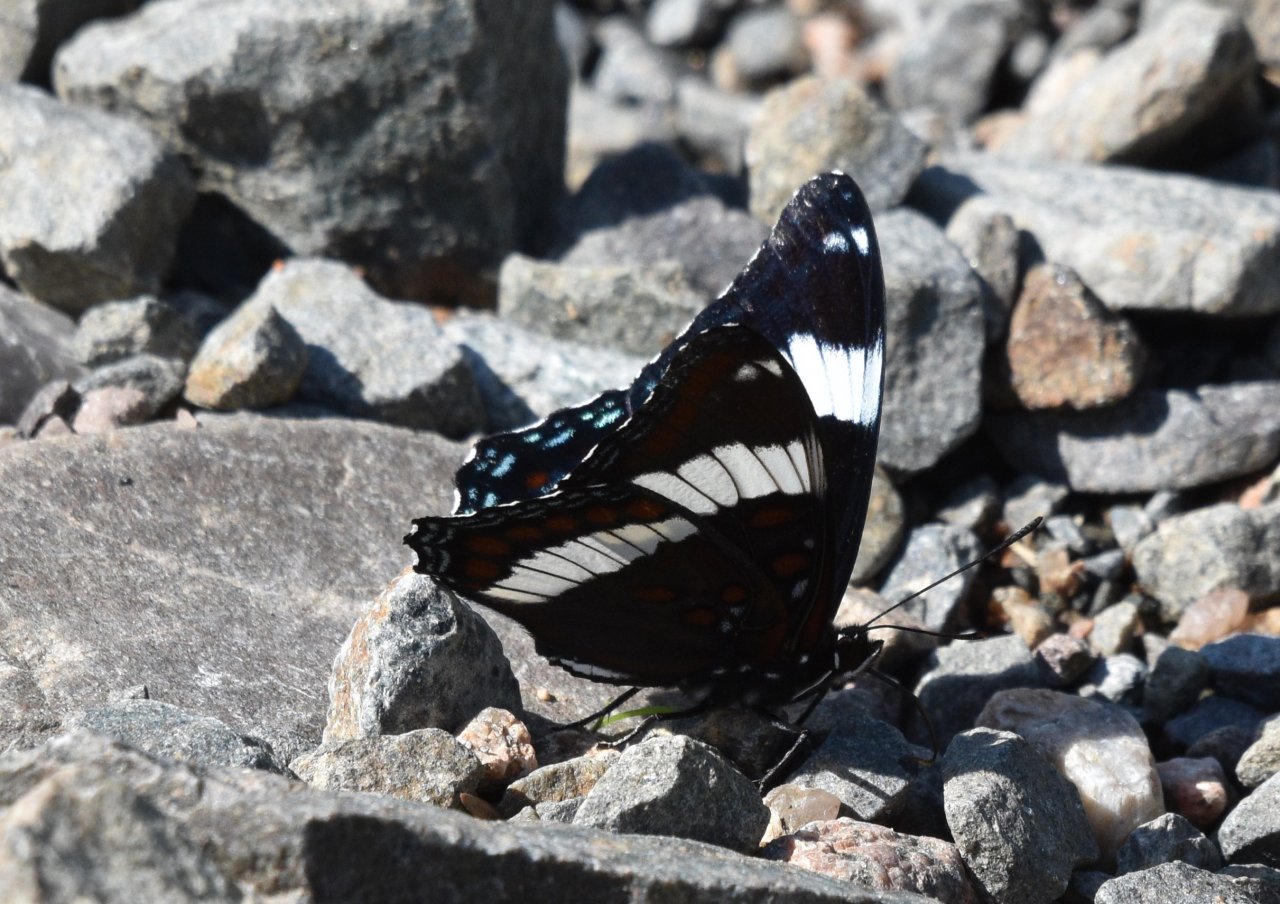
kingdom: Animalia
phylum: Arthropoda
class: Insecta
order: Lepidoptera
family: Nymphalidae
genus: Limenitis
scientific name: Limenitis arthemis
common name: Red-spotted Admiral
